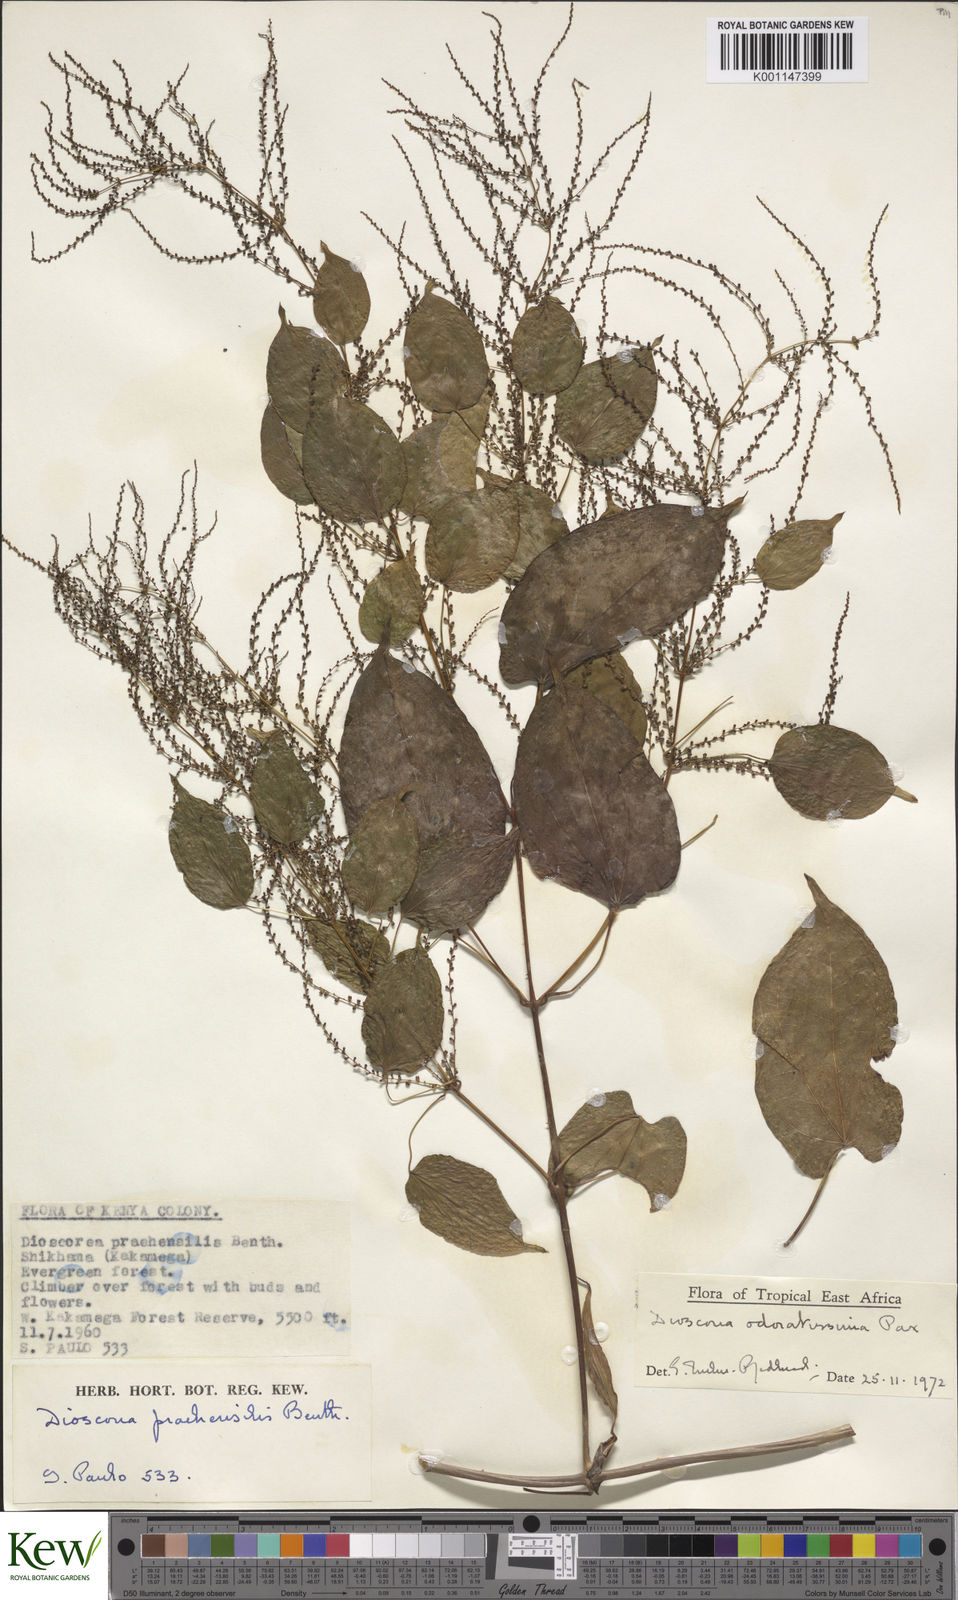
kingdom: Plantae
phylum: Tracheophyta
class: Liliopsida
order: Dioscoreales
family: Dioscoreaceae
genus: Dioscorea
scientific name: Dioscorea praehensilis
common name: Bush yam
